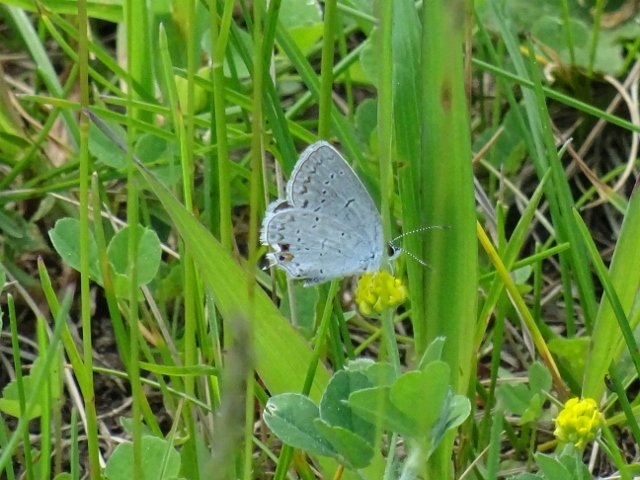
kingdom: Animalia
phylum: Arthropoda
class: Insecta
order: Lepidoptera
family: Lycaenidae
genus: Elkalyce
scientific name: Elkalyce comyntas
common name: Eastern Tailed-Blue
